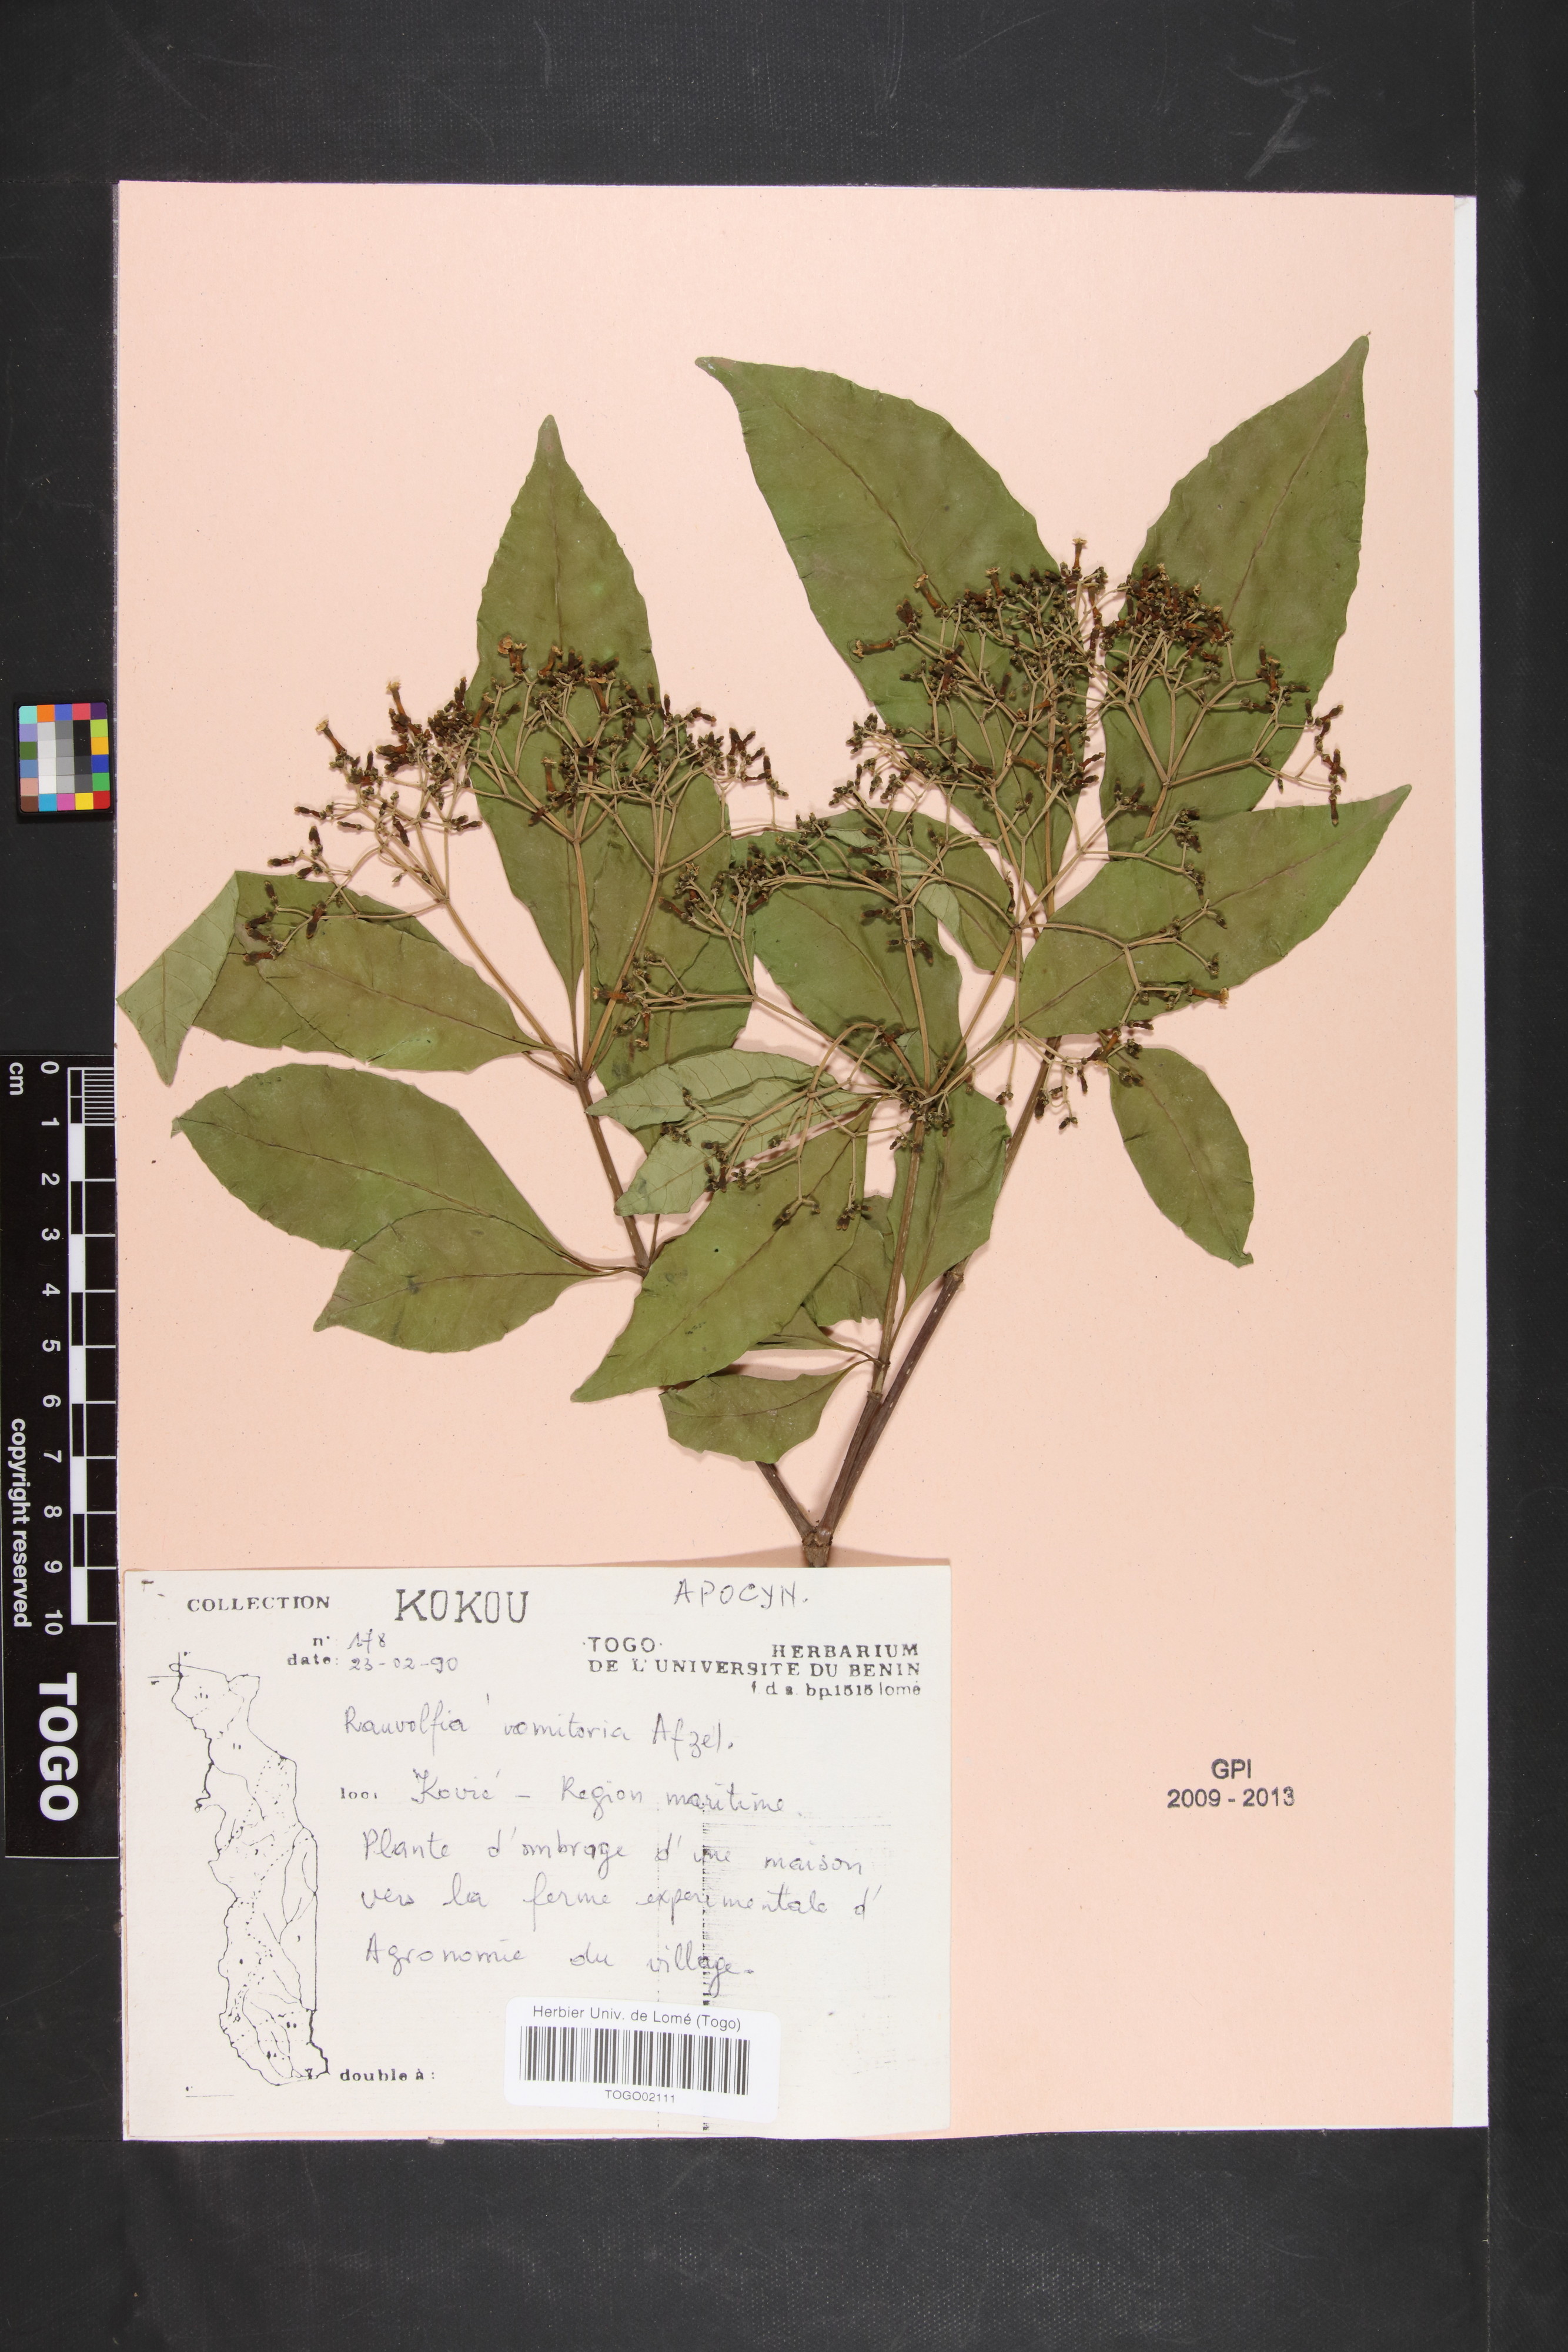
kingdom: Plantae
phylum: Tracheophyta
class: Magnoliopsida
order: Gentianales
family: Apocynaceae
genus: Rauvolfia
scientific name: Rauvolfia vomitoria
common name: Poison devil's-pepper
